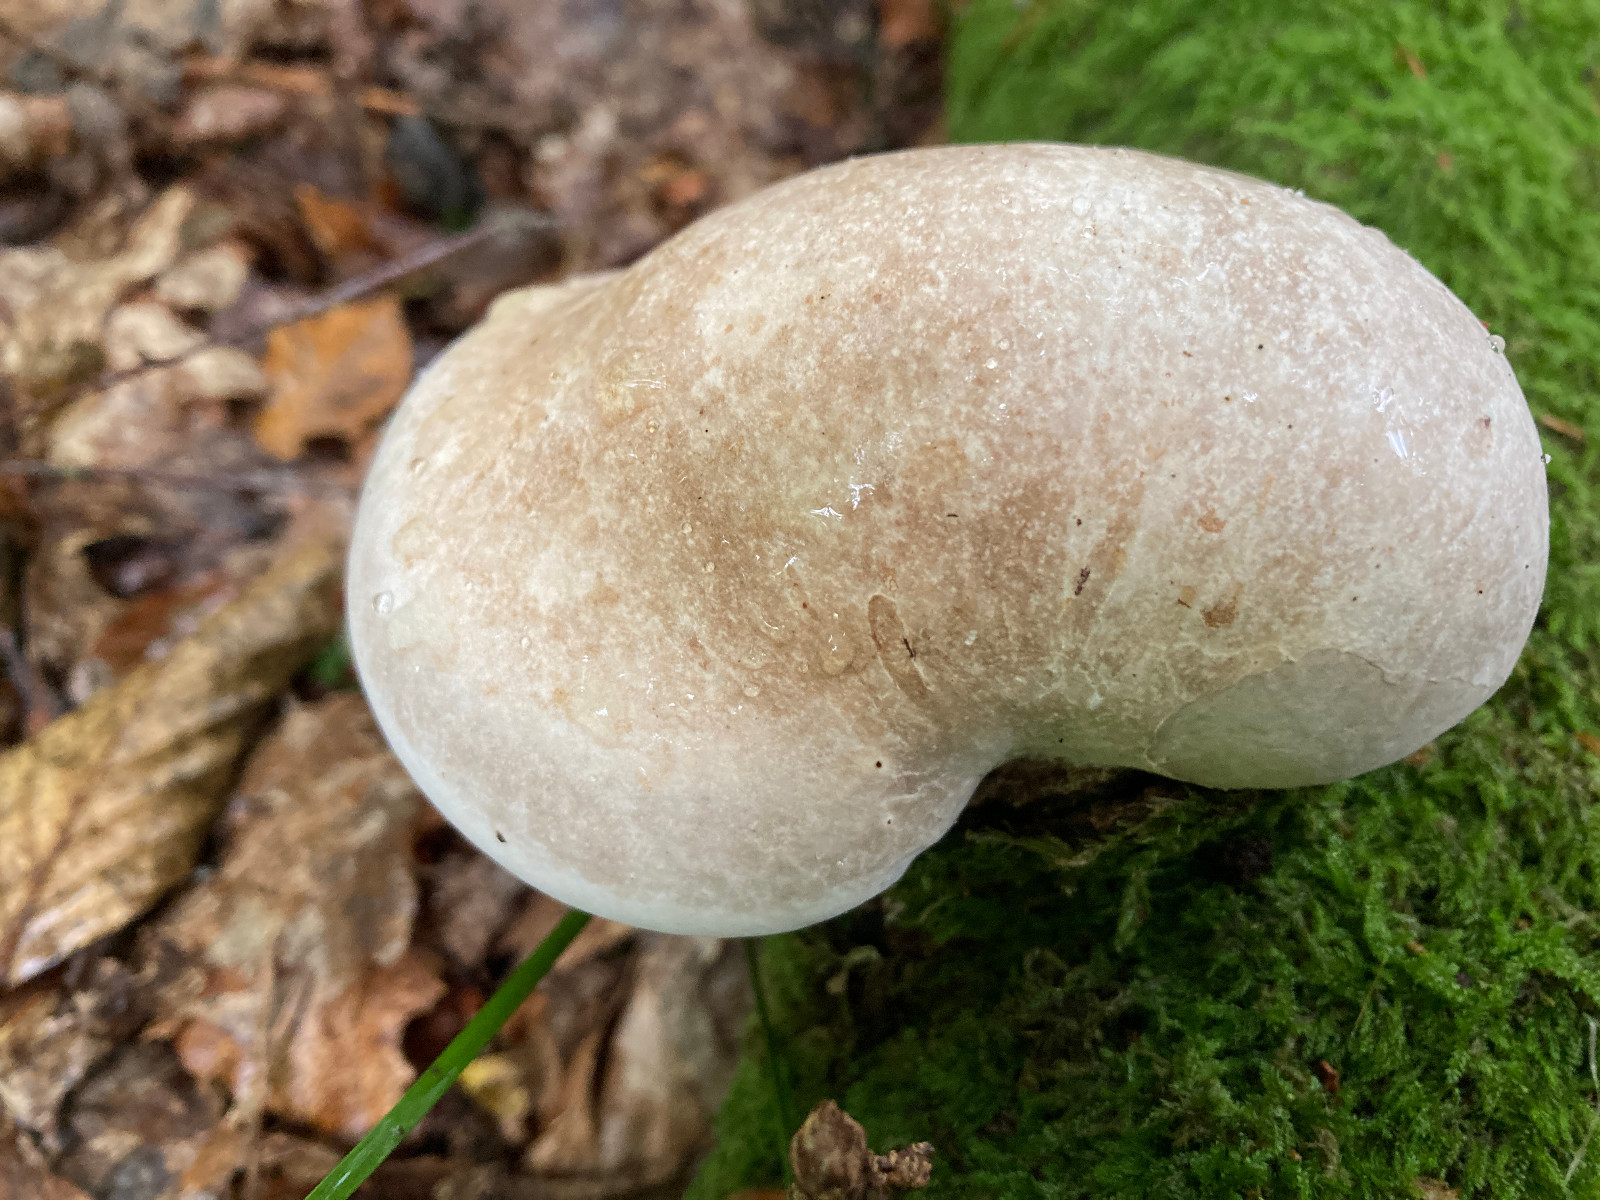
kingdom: Fungi
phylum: Basidiomycota
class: Agaricomycetes
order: Polyporales
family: Fomitopsidaceae
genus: Fomitopsis
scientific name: Fomitopsis betulina
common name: birkeporesvamp
